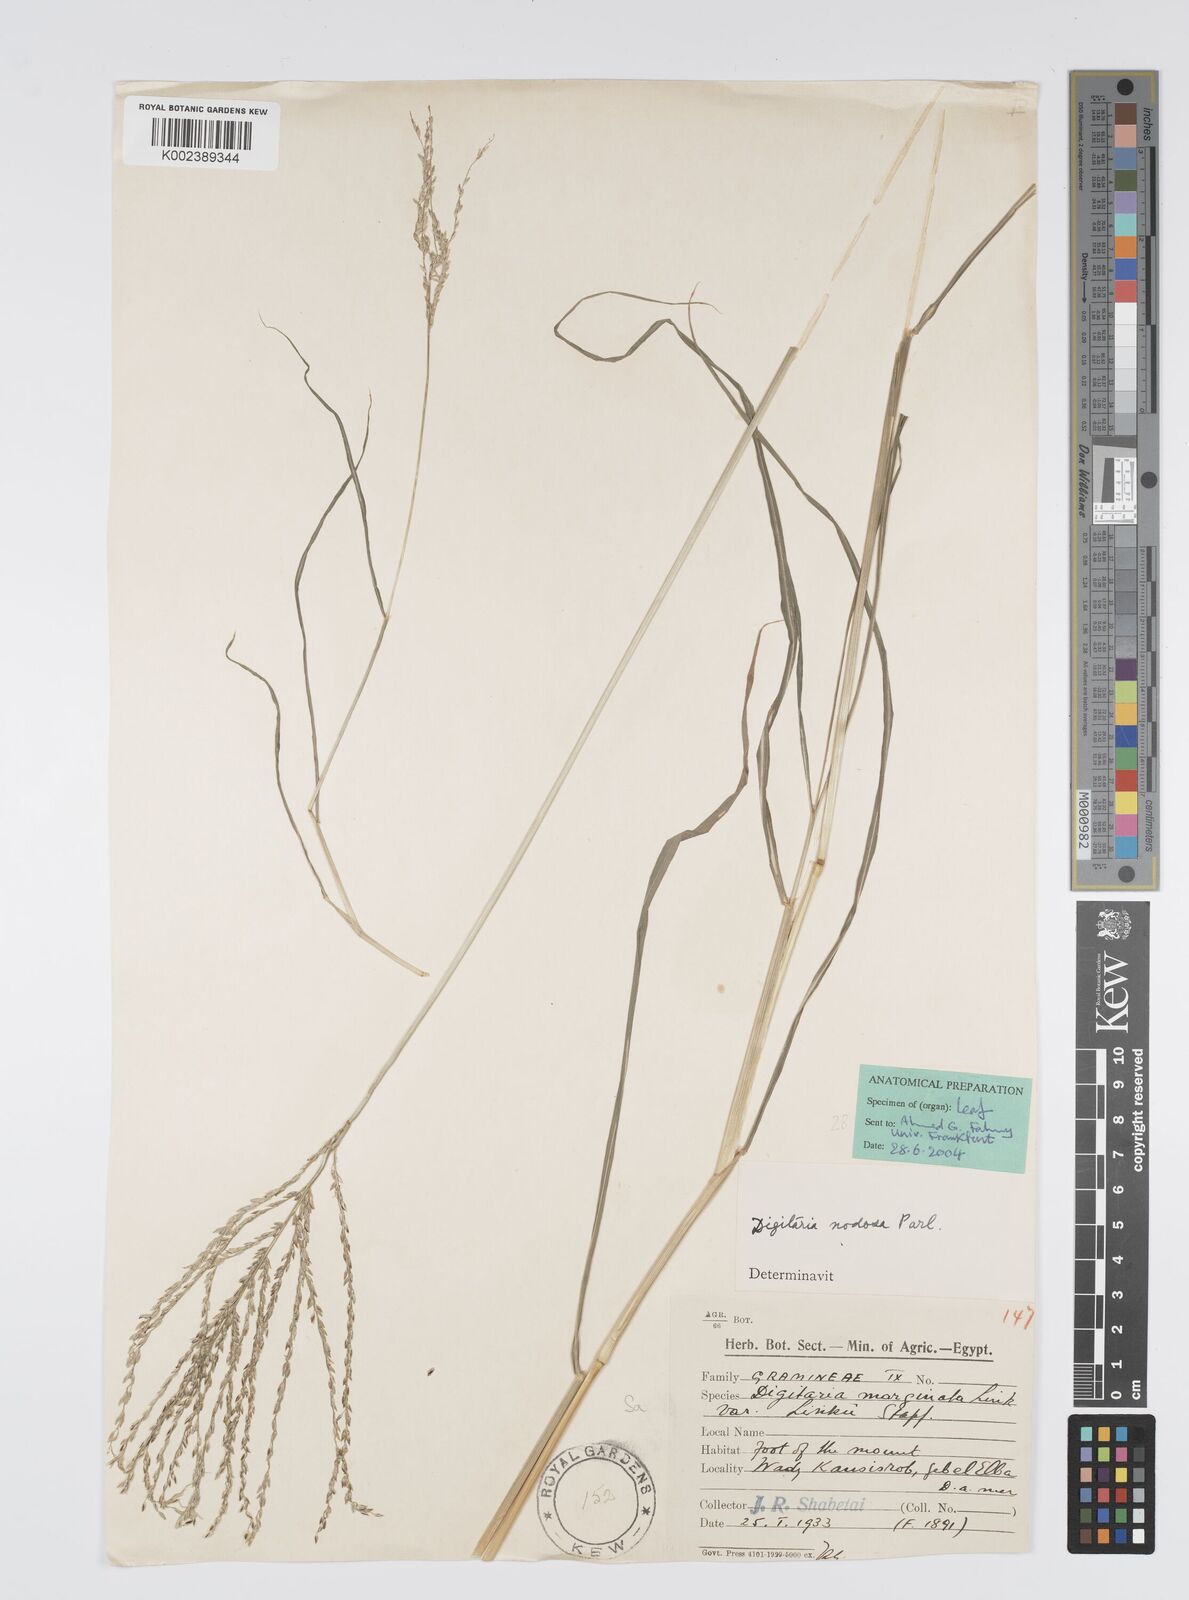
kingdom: Plantae
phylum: Tracheophyta
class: Liliopsida
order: Poales
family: Poaceae
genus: Digitaria
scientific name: Digitaria nodosa
